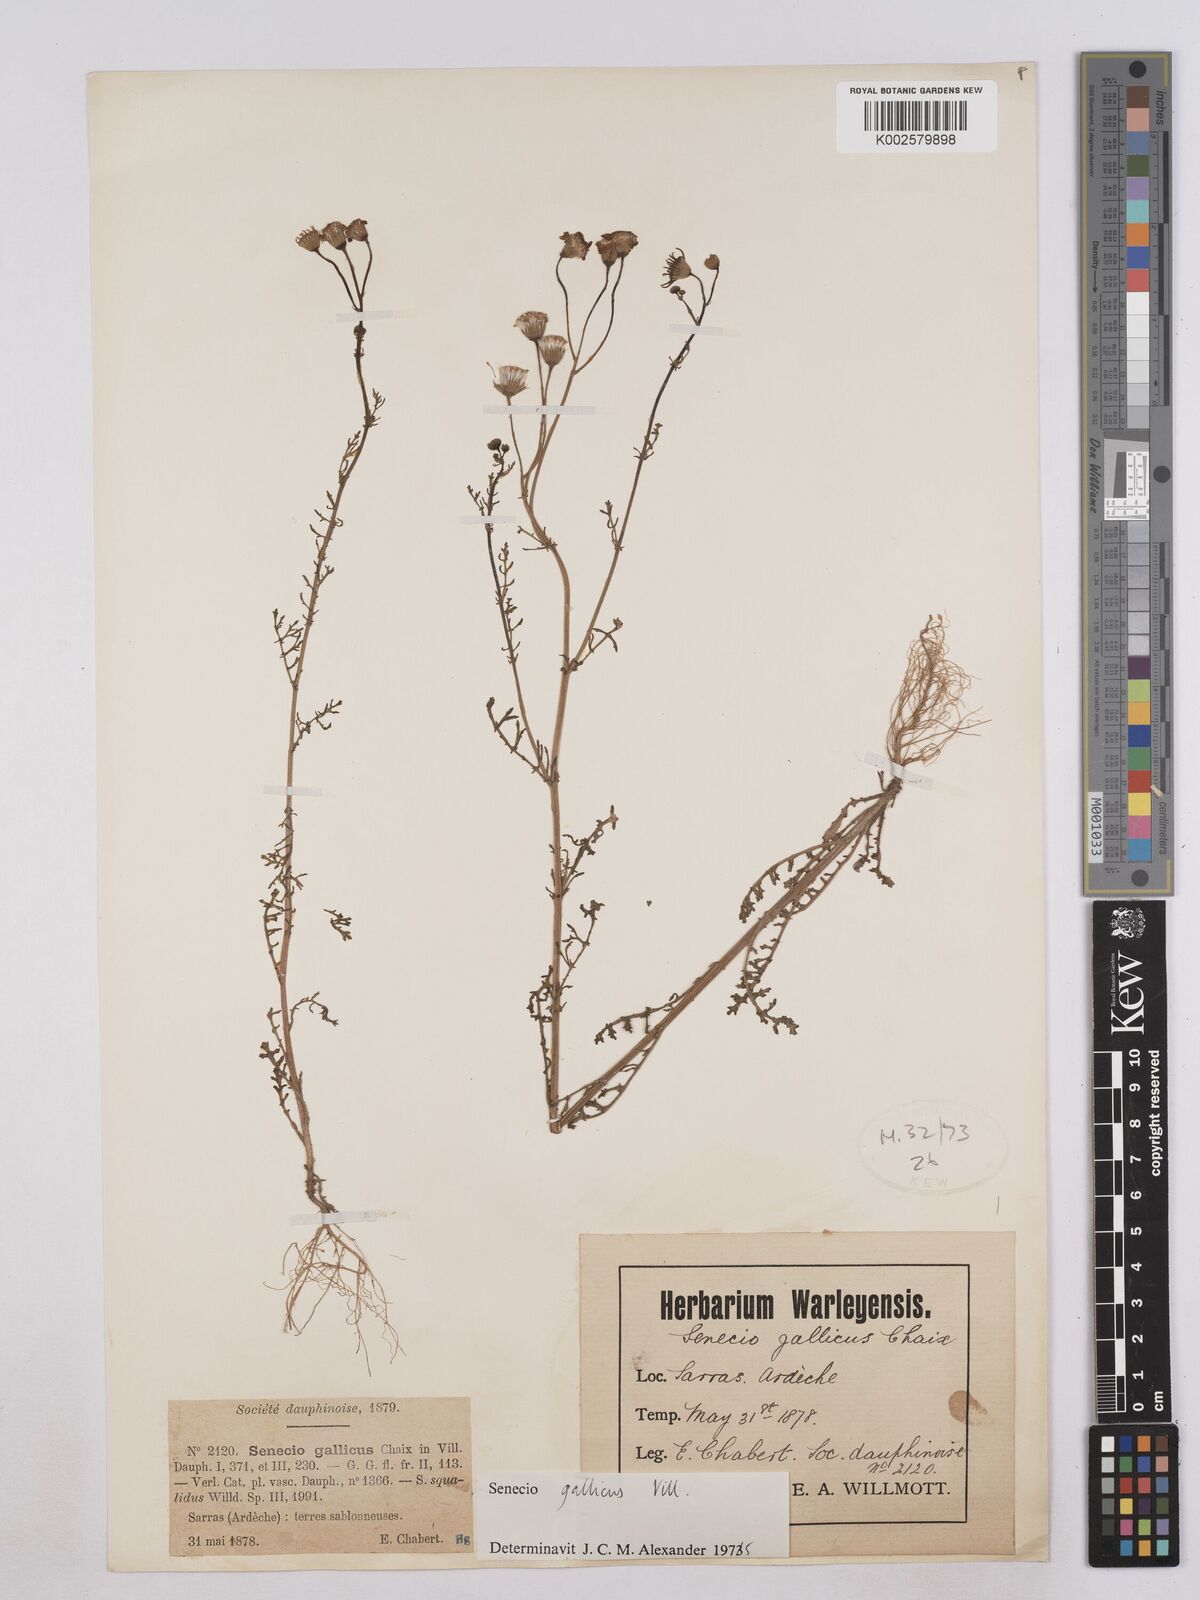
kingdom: Plantae
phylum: Tracheophyta
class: Magnoliopsida
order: Asterales
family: Asteraceae
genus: Senecio
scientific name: Senecio gallicus
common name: French groundsel
